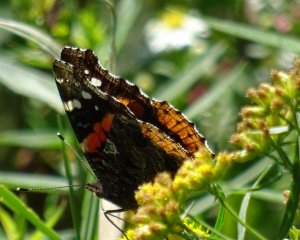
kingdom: Animalia
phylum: Arthropoda
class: Insecta
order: Lepidoptera
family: Nymphalidae
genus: Vanessa
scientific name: Vanessa atalanta
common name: Red Admiral
